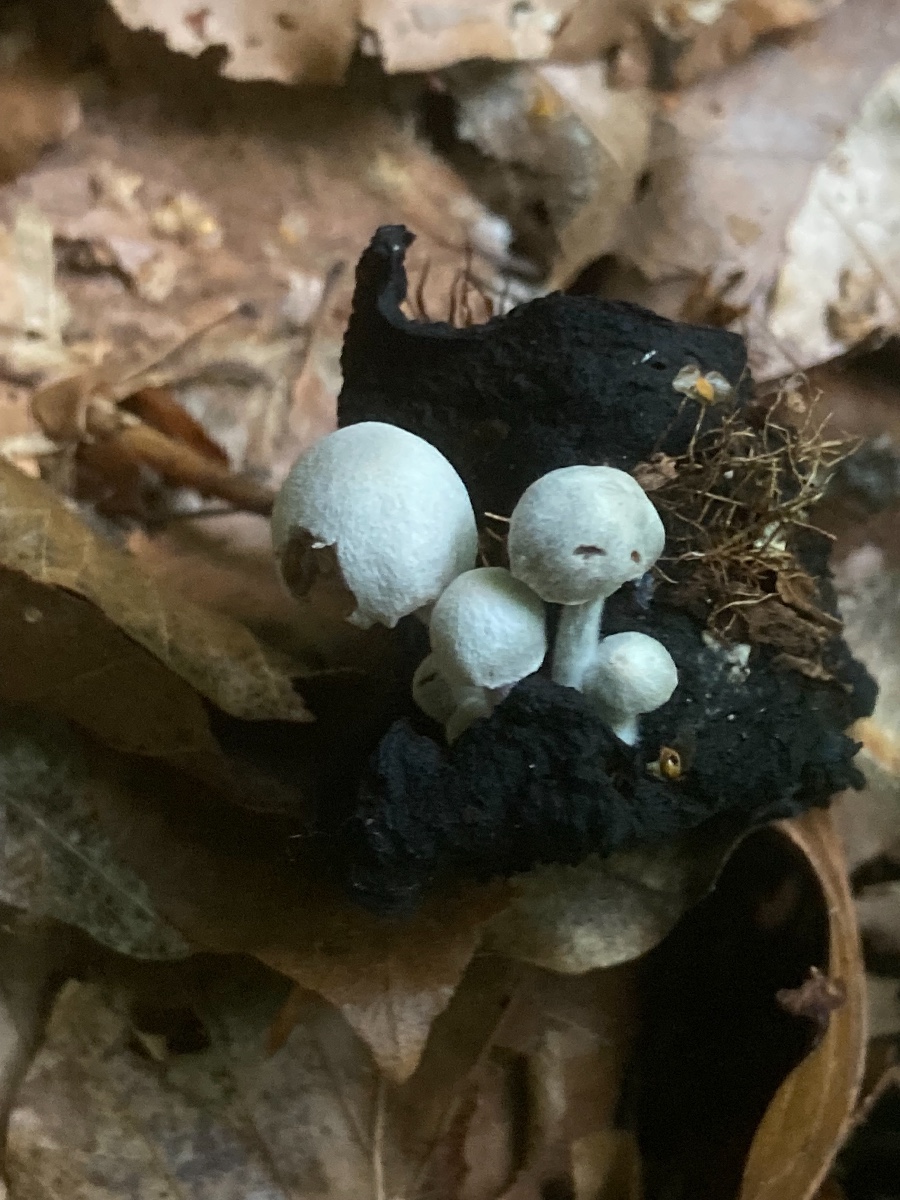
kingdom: Fungi
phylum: Basidiomycota
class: Agaricomycetes
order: Agaricales
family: Lyophyllaceae
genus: Asterophora
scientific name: Asterophora parasitica
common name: grå snyltehat
